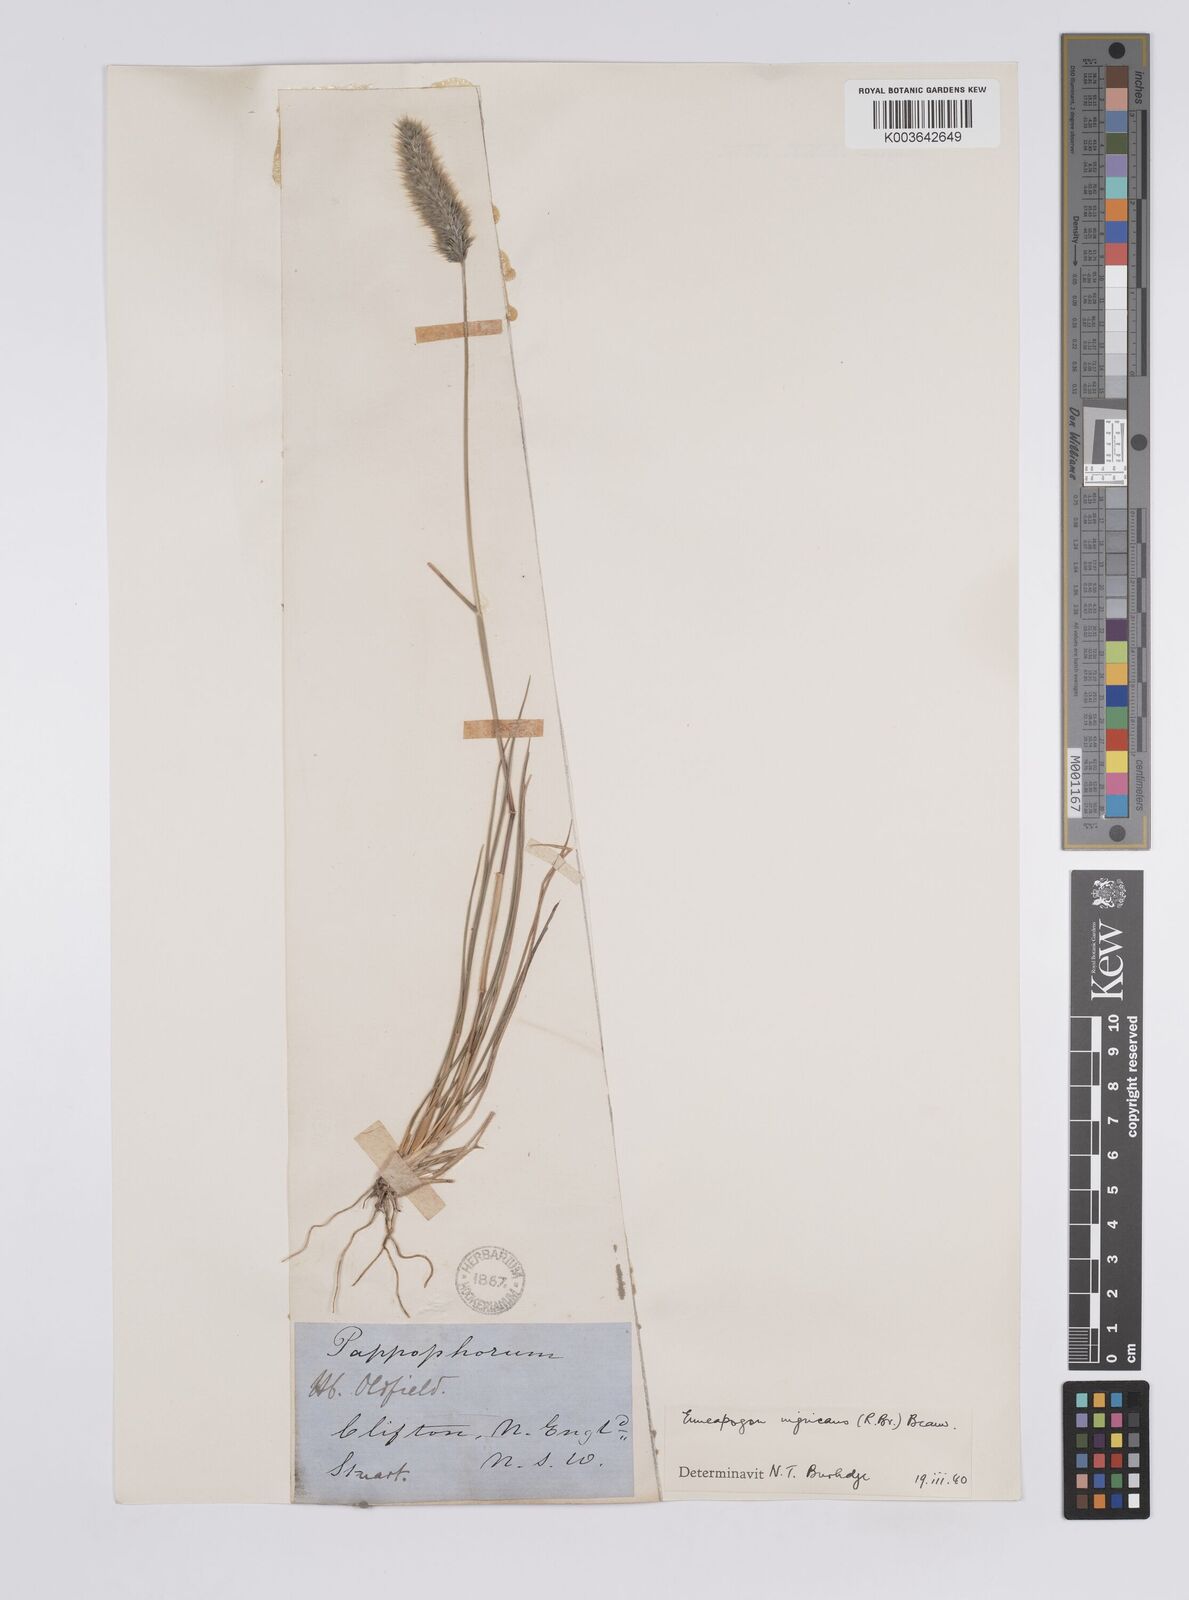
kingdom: Plantae
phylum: Tracheophyta
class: Liliopsida
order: Poales
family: Poaceae
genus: Enneapogon
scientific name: Enneapogon nigricans
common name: Pappus grass
